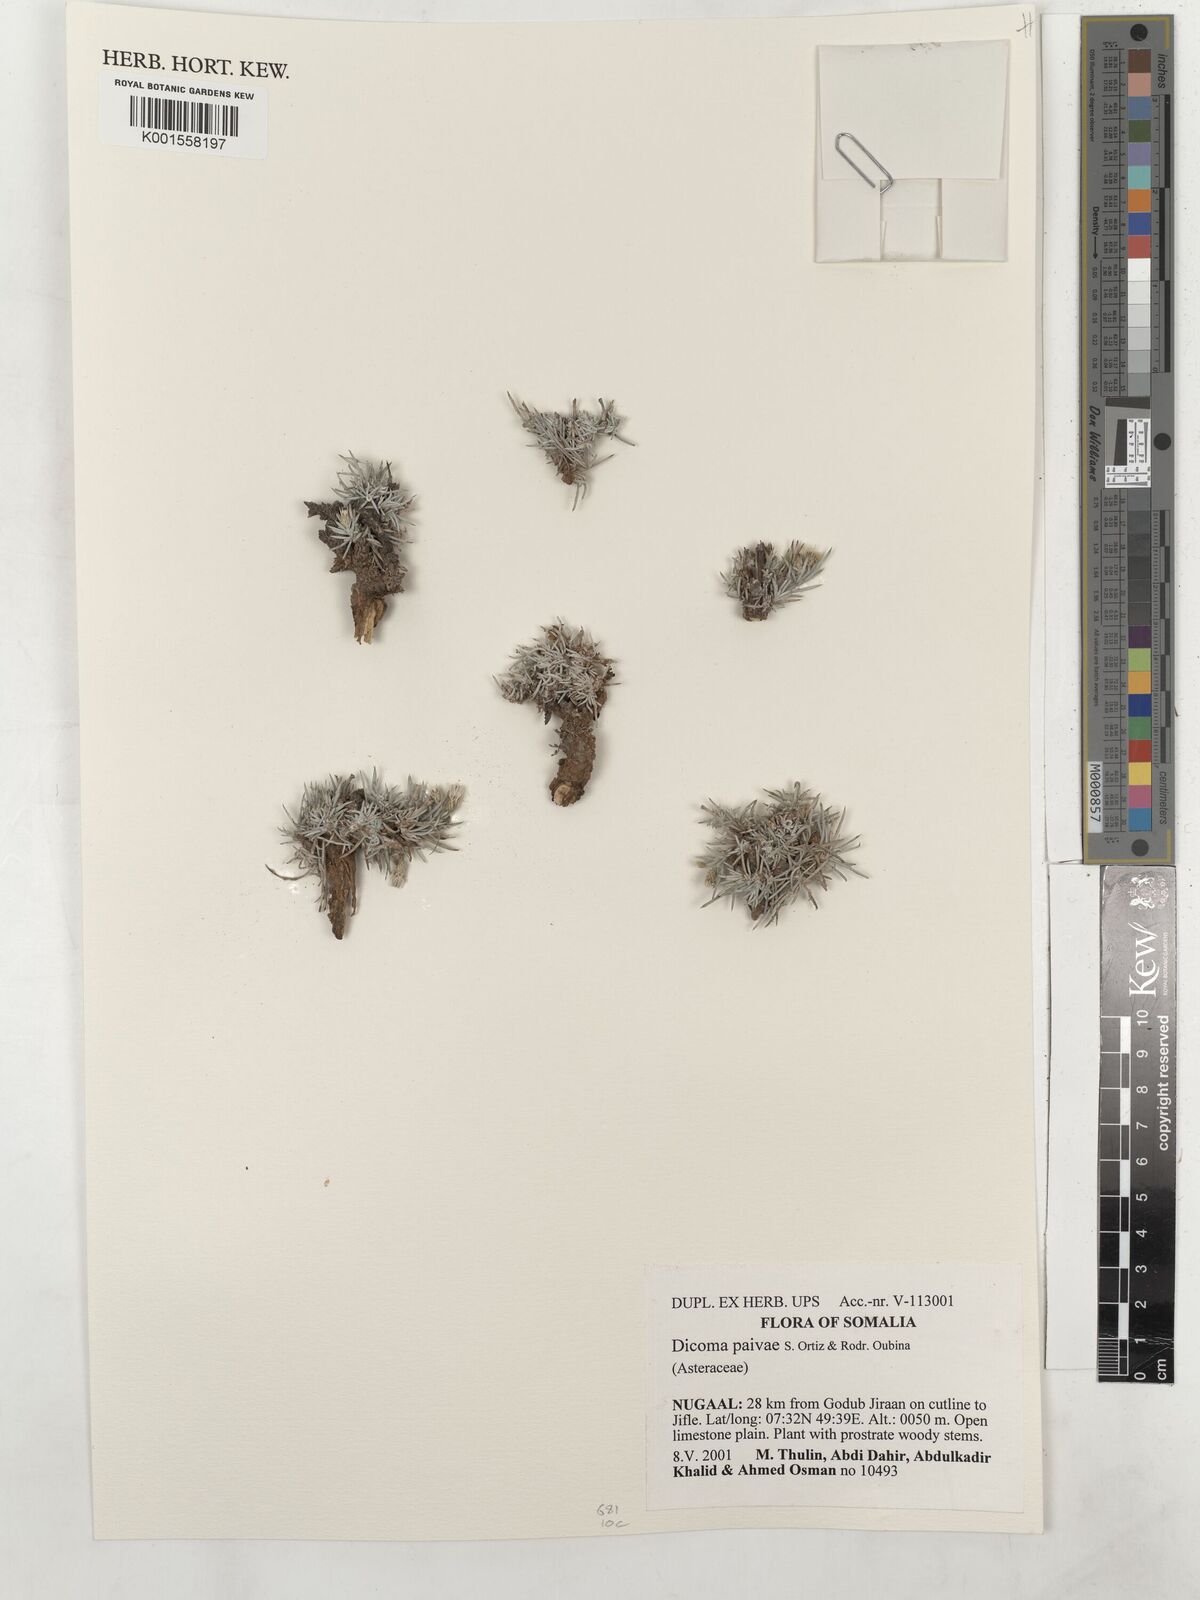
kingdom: Plantae
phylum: Tracheophyta
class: Magnoliopsida
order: Asterales
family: Asteraceae
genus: Dicoma
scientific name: Dicoma paivae
